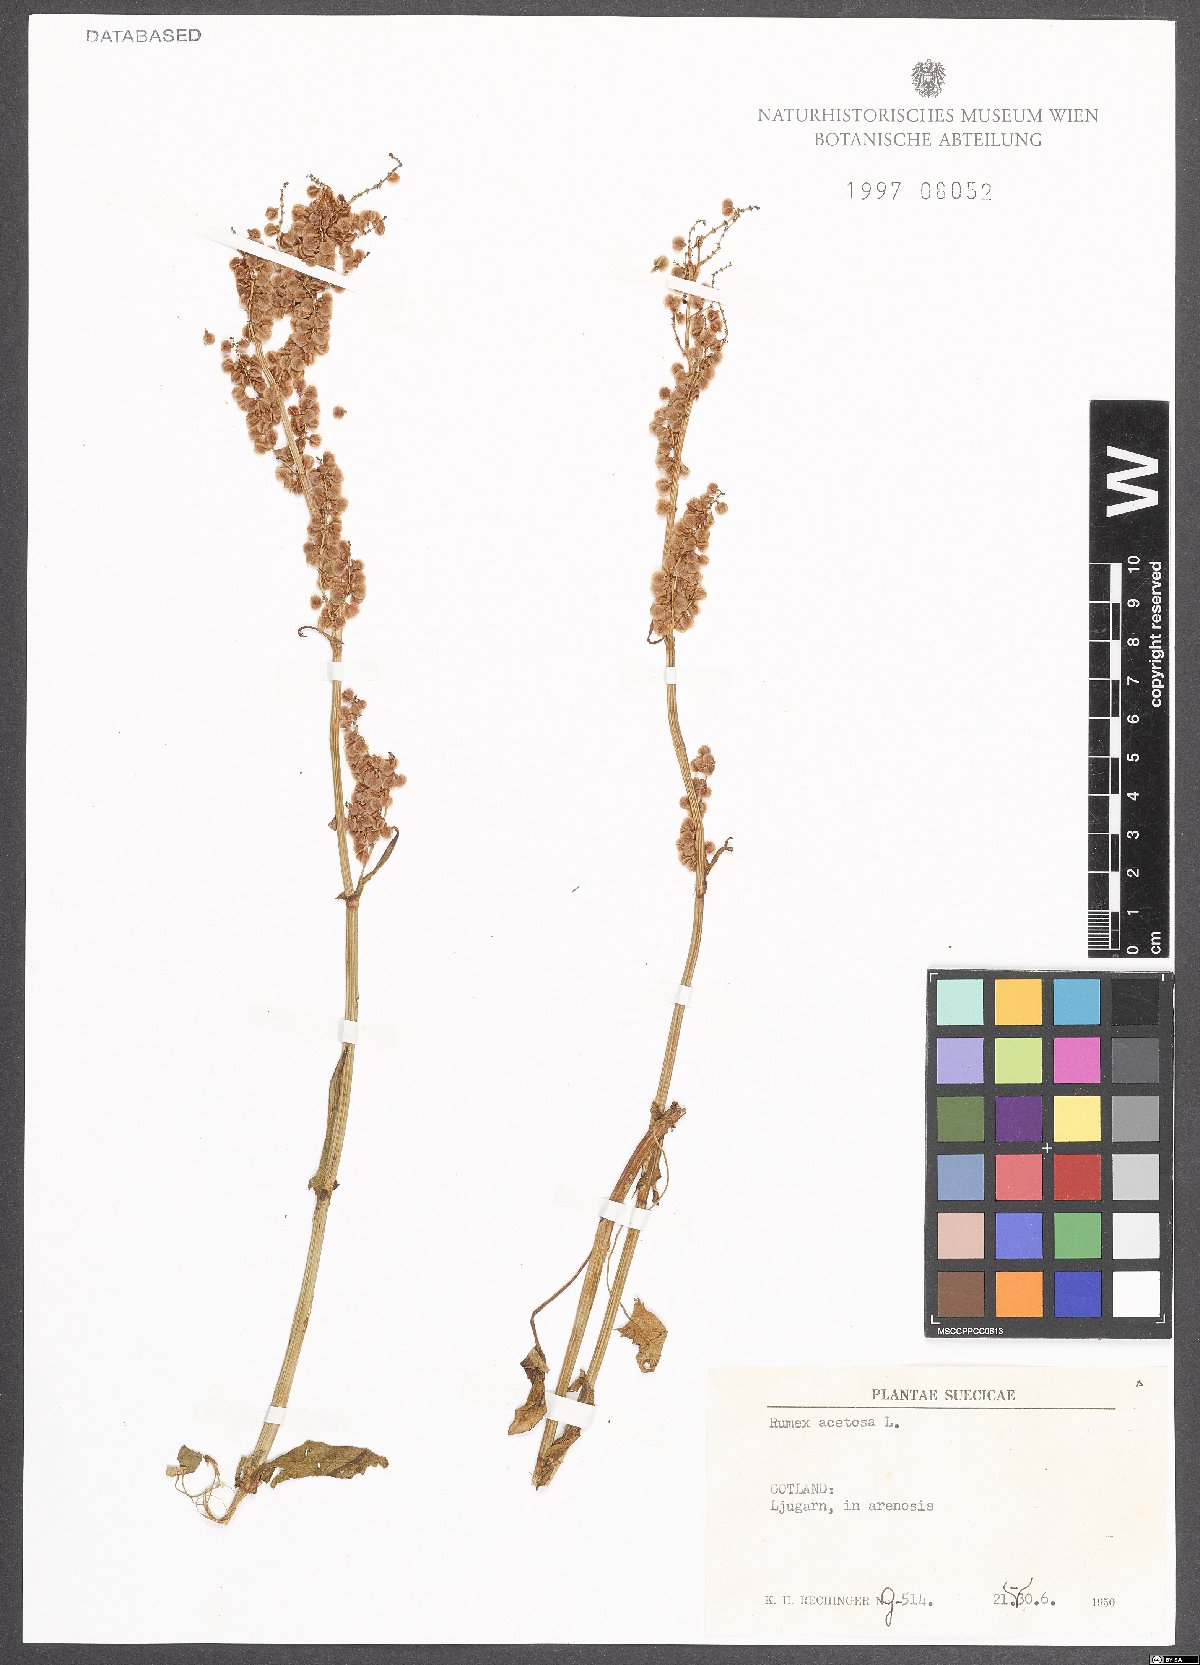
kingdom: Plantae
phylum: Tracheophyta
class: Magnoliopsida
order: Caryophyllales
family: Polygonaceae
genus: Rumex
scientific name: Rumex acetosa
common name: Garden sorrel
